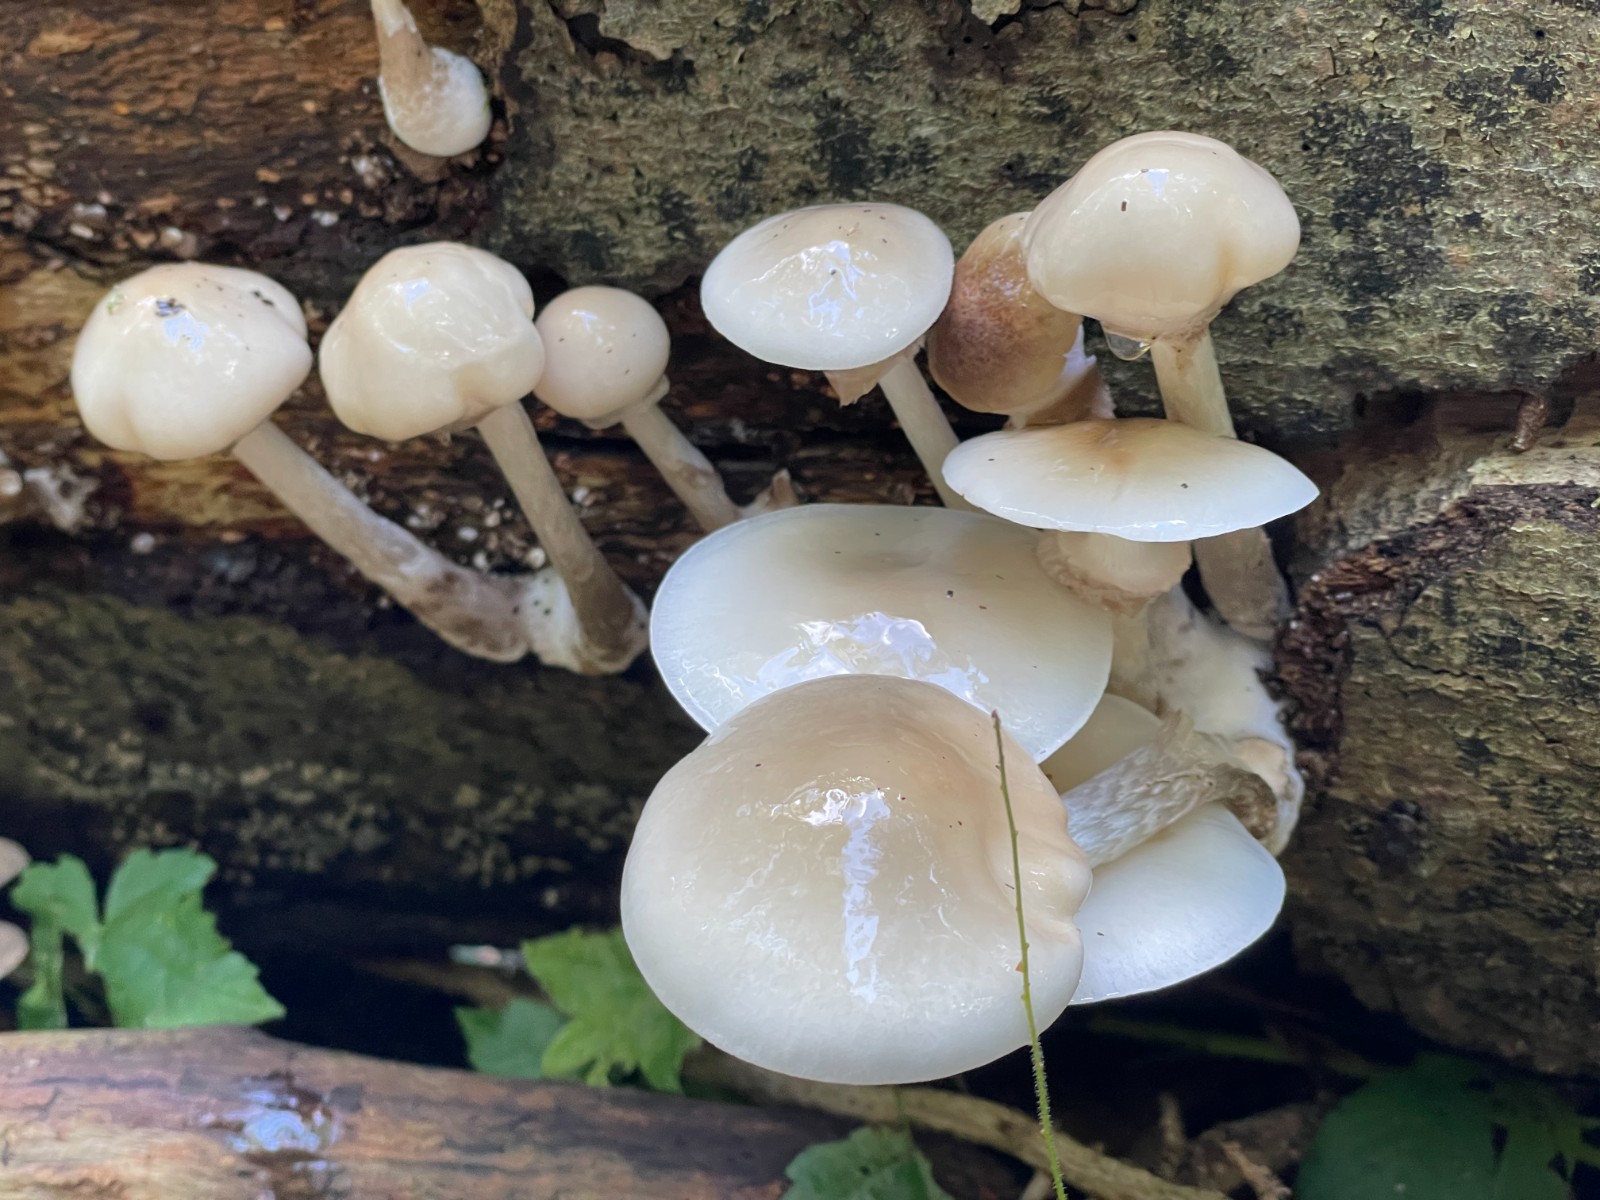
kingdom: Fungi
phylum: Basidiomycota
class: Agaricomycetes
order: Agaricales
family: Physalacriaceae
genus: Mucidula
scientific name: Mucidula mucida
